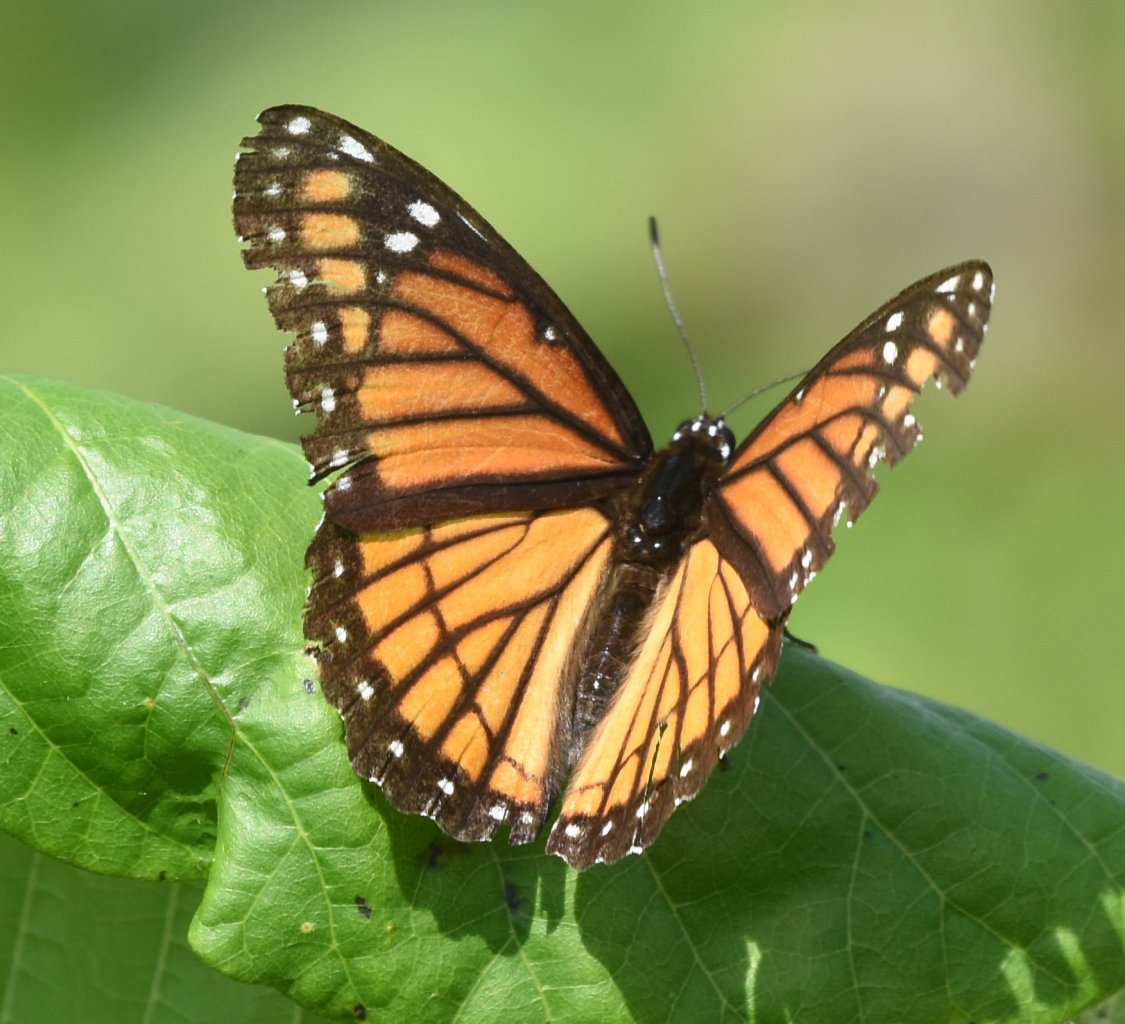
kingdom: Animalia
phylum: Arthropoda
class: Insecta
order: Lepidoptera
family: Nymphalidae
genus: Limenitis
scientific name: Limenitis archippus
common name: Viceroy
